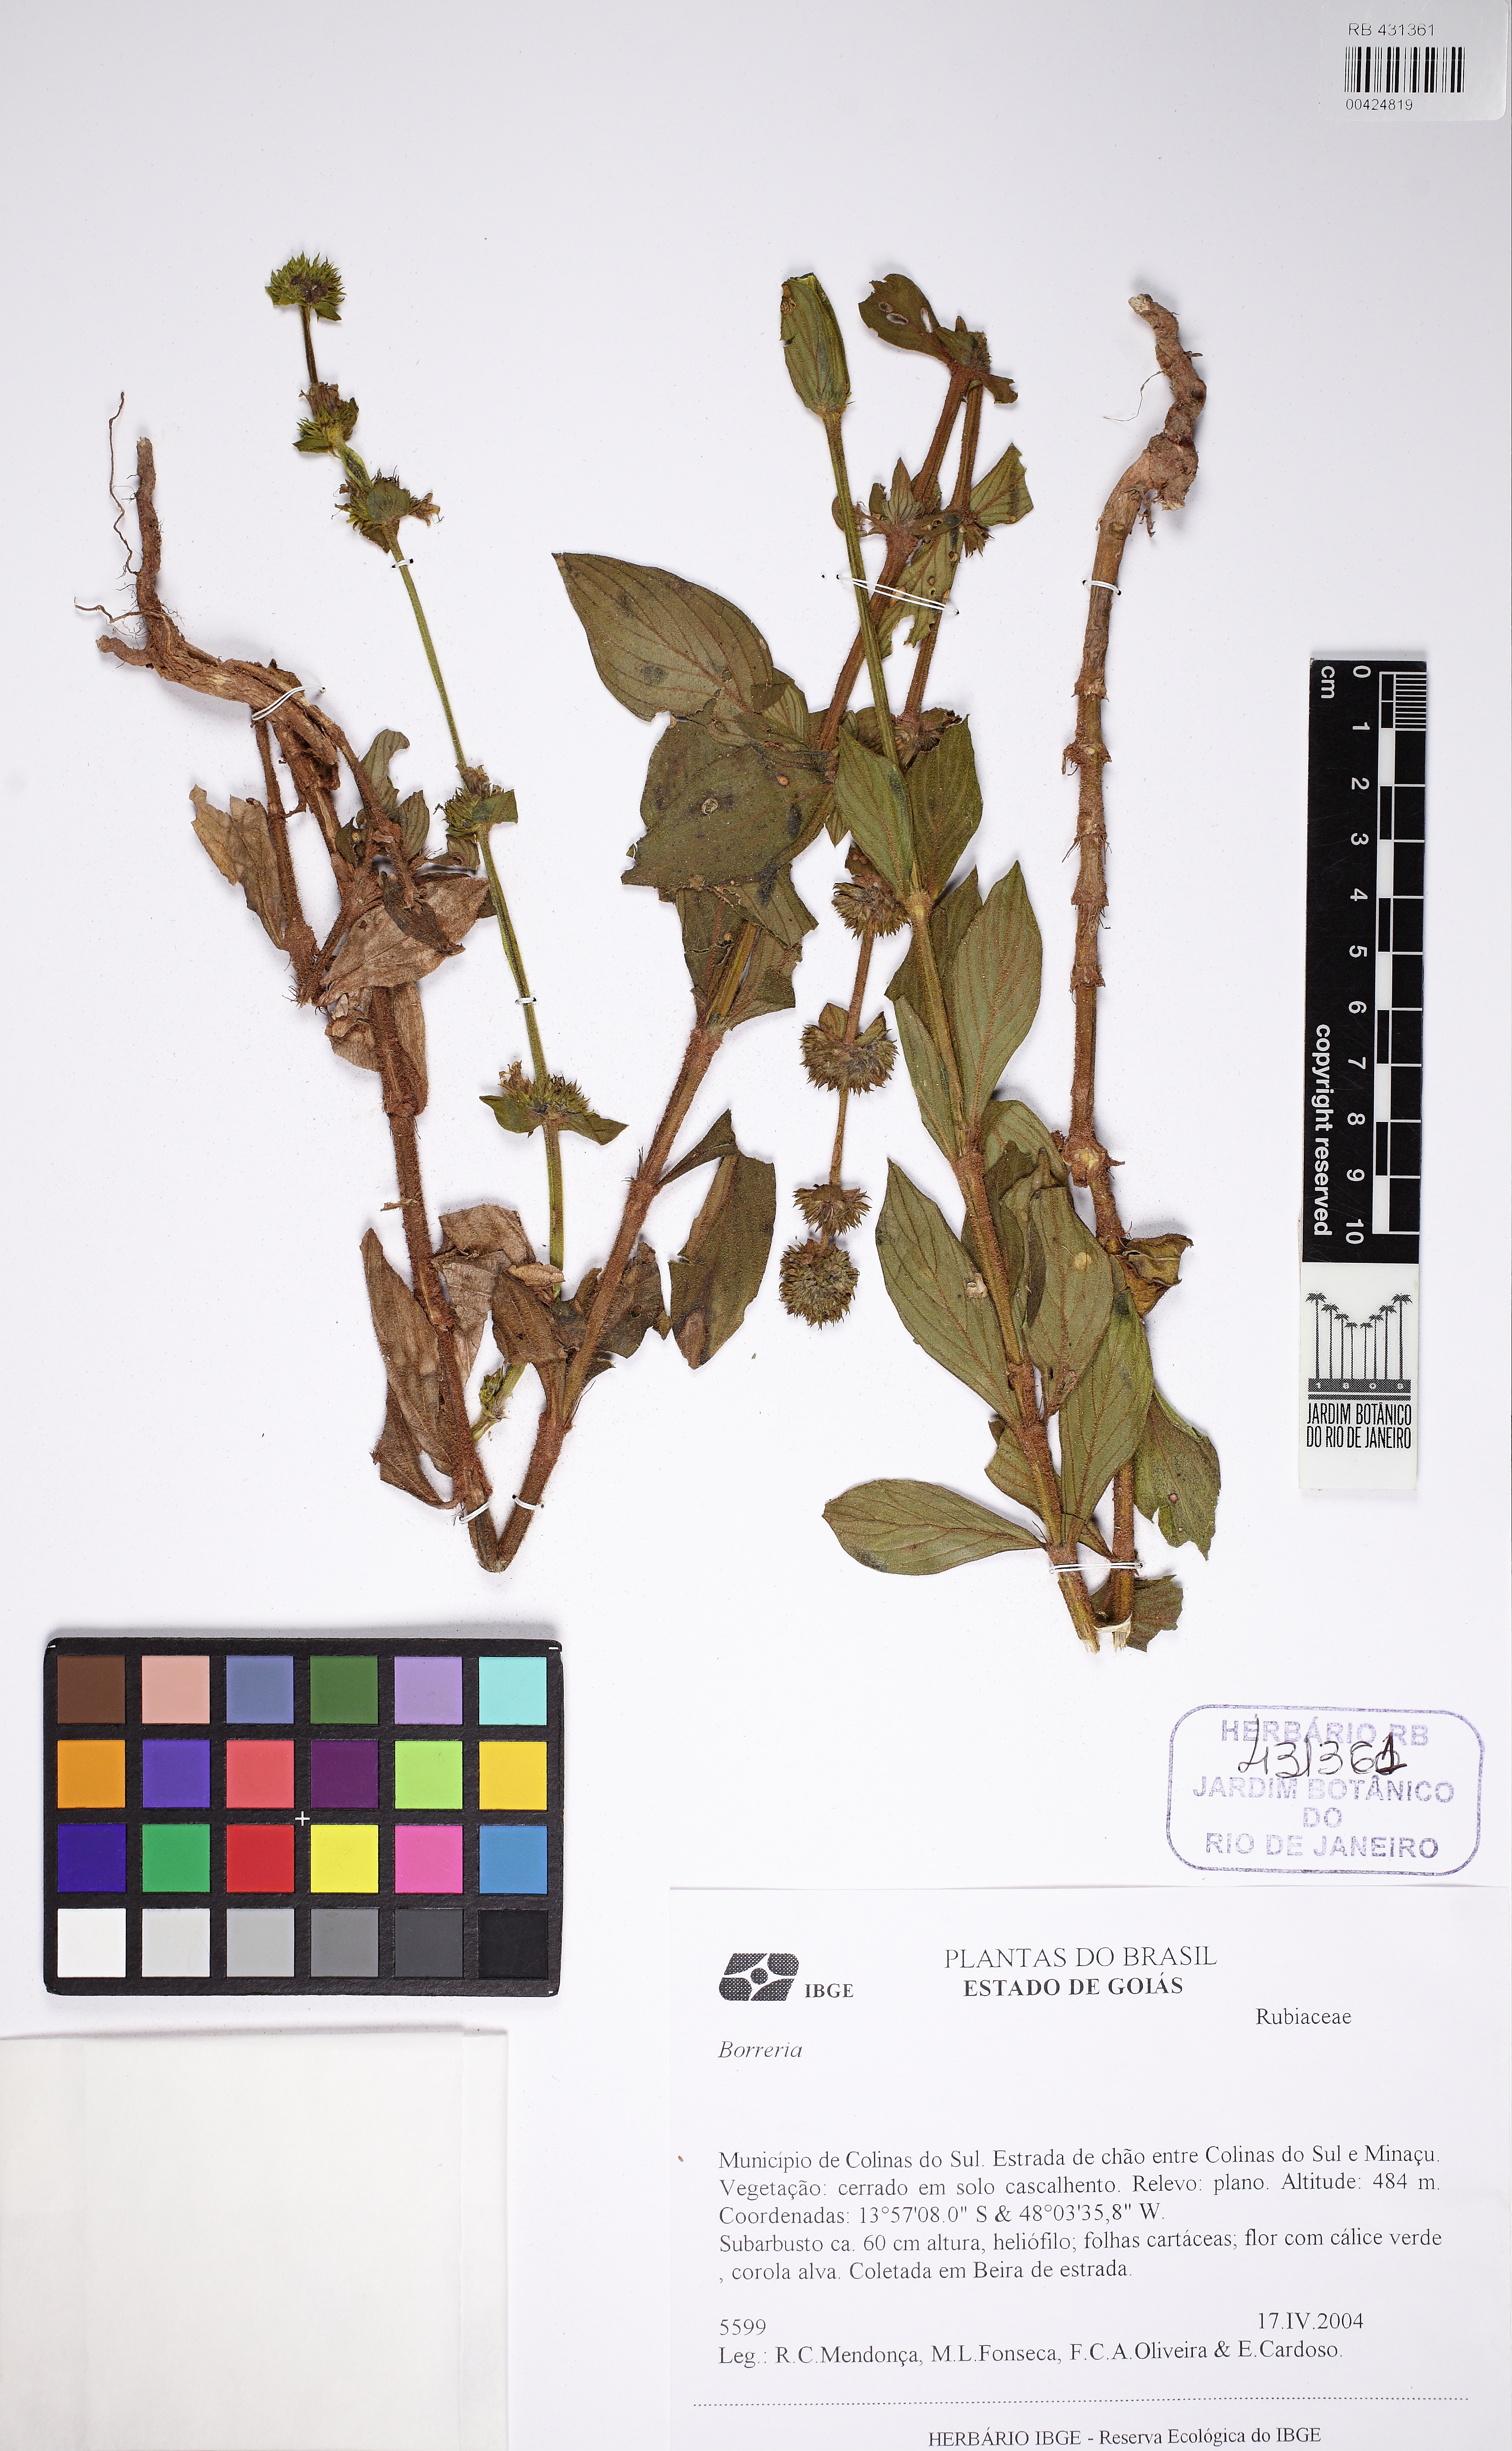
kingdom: Plantae
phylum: Tracheophyta
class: Magnoliopsida
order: Gentianales
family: Rubiaceae
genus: Spermacoce
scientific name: Spermacoce latifolia
